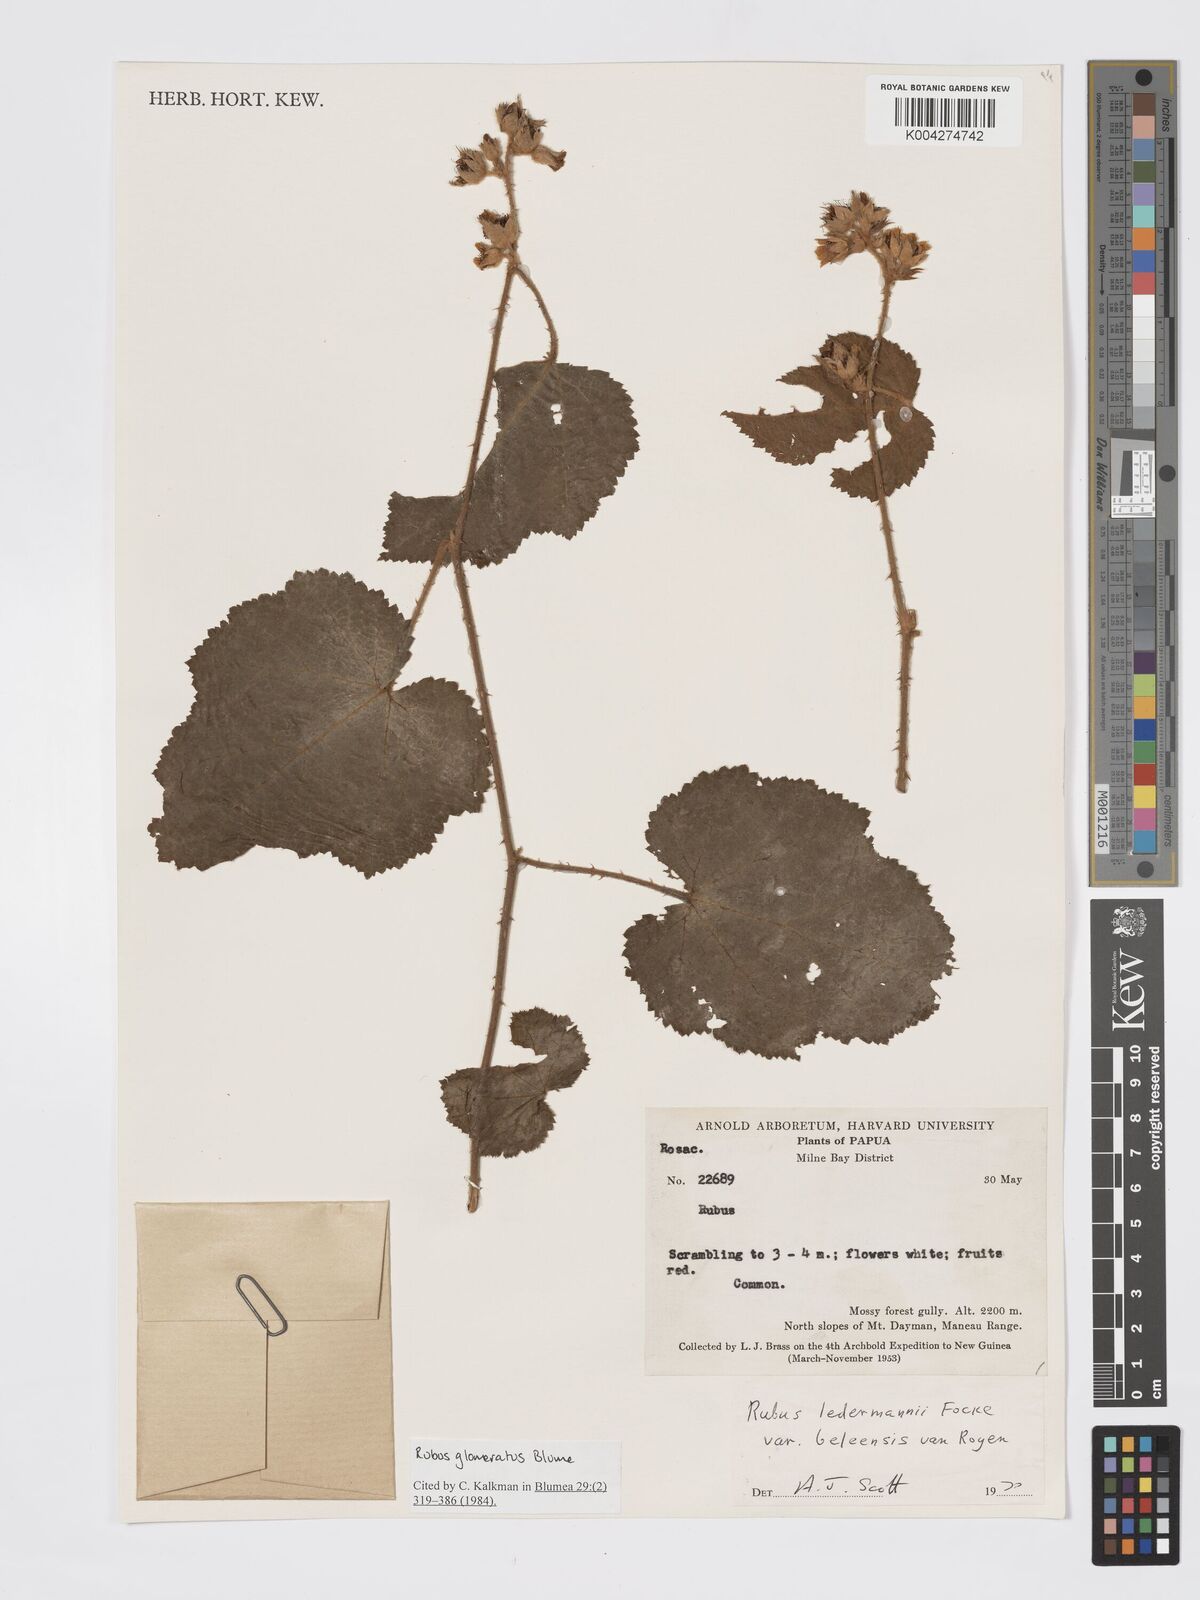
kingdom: Plantae
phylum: Tracheophyta
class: Magnoliopsida
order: Rosales
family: Rosaceae
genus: Rubus
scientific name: Rubus
